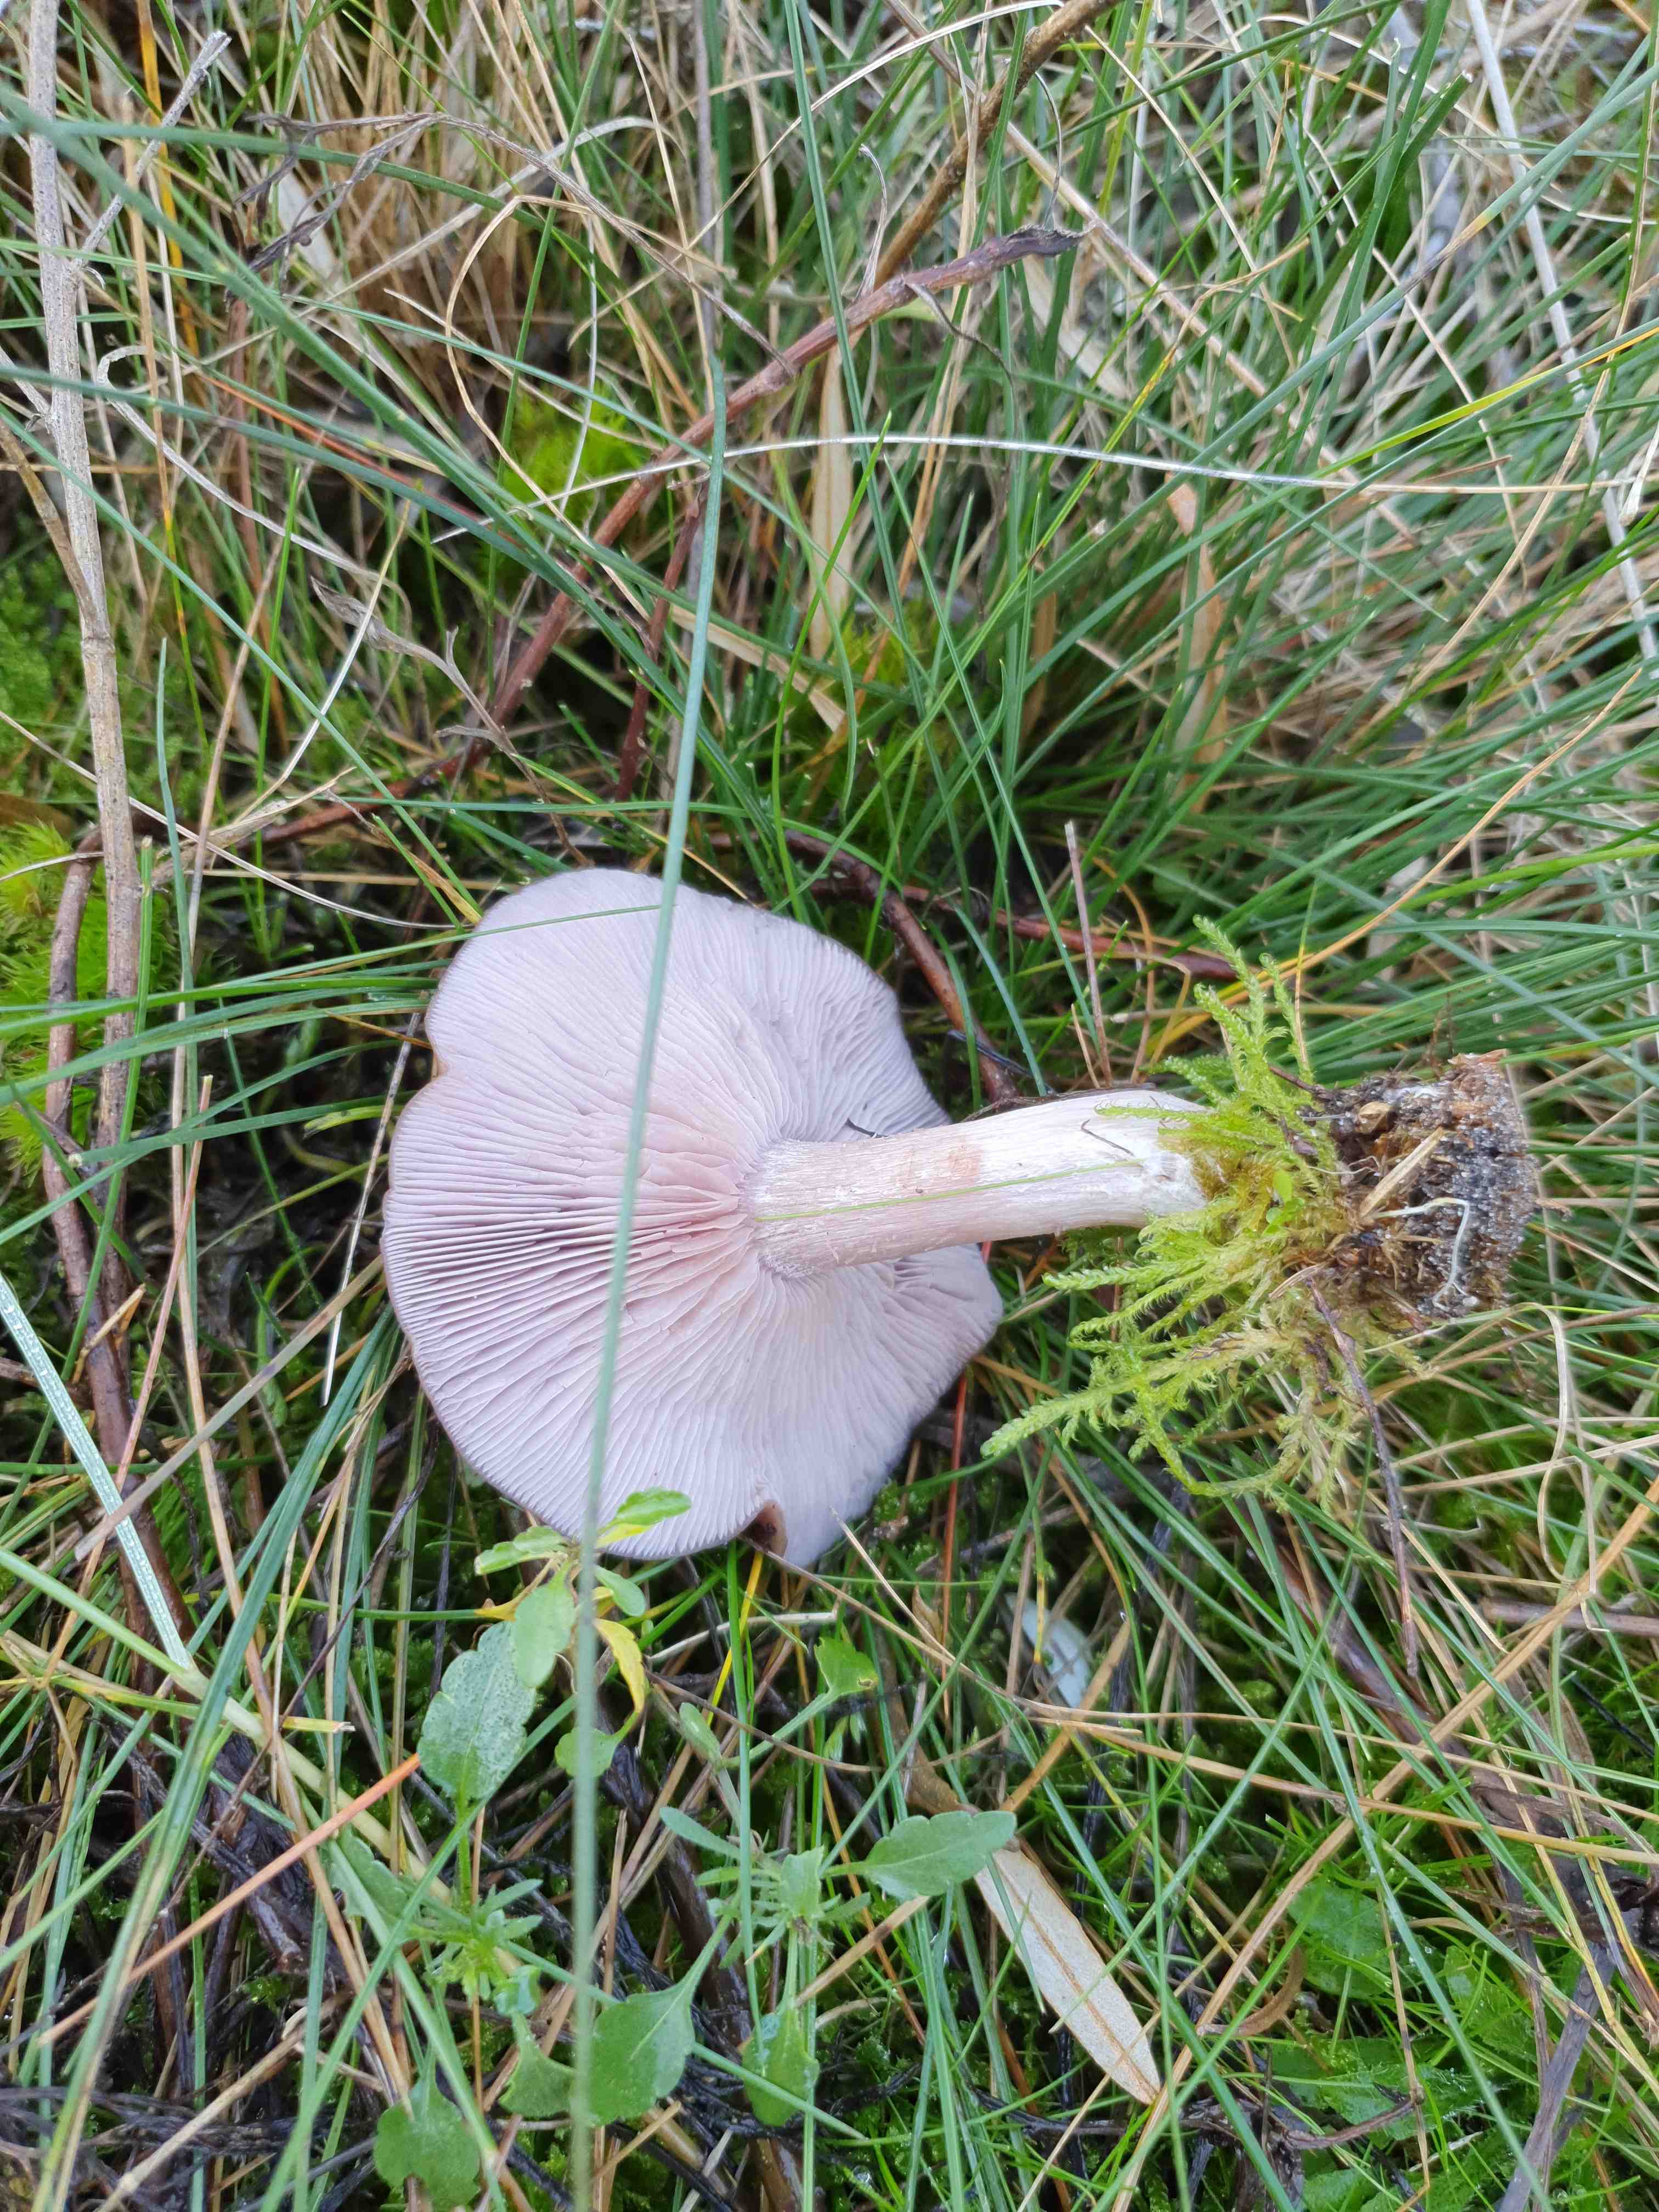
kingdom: Fungi
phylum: Basidiomycota
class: Agaricomycetes
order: Agaricales
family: Tricholomataceae
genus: Lepista
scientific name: Lepista nuda
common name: violet hekseringshat
